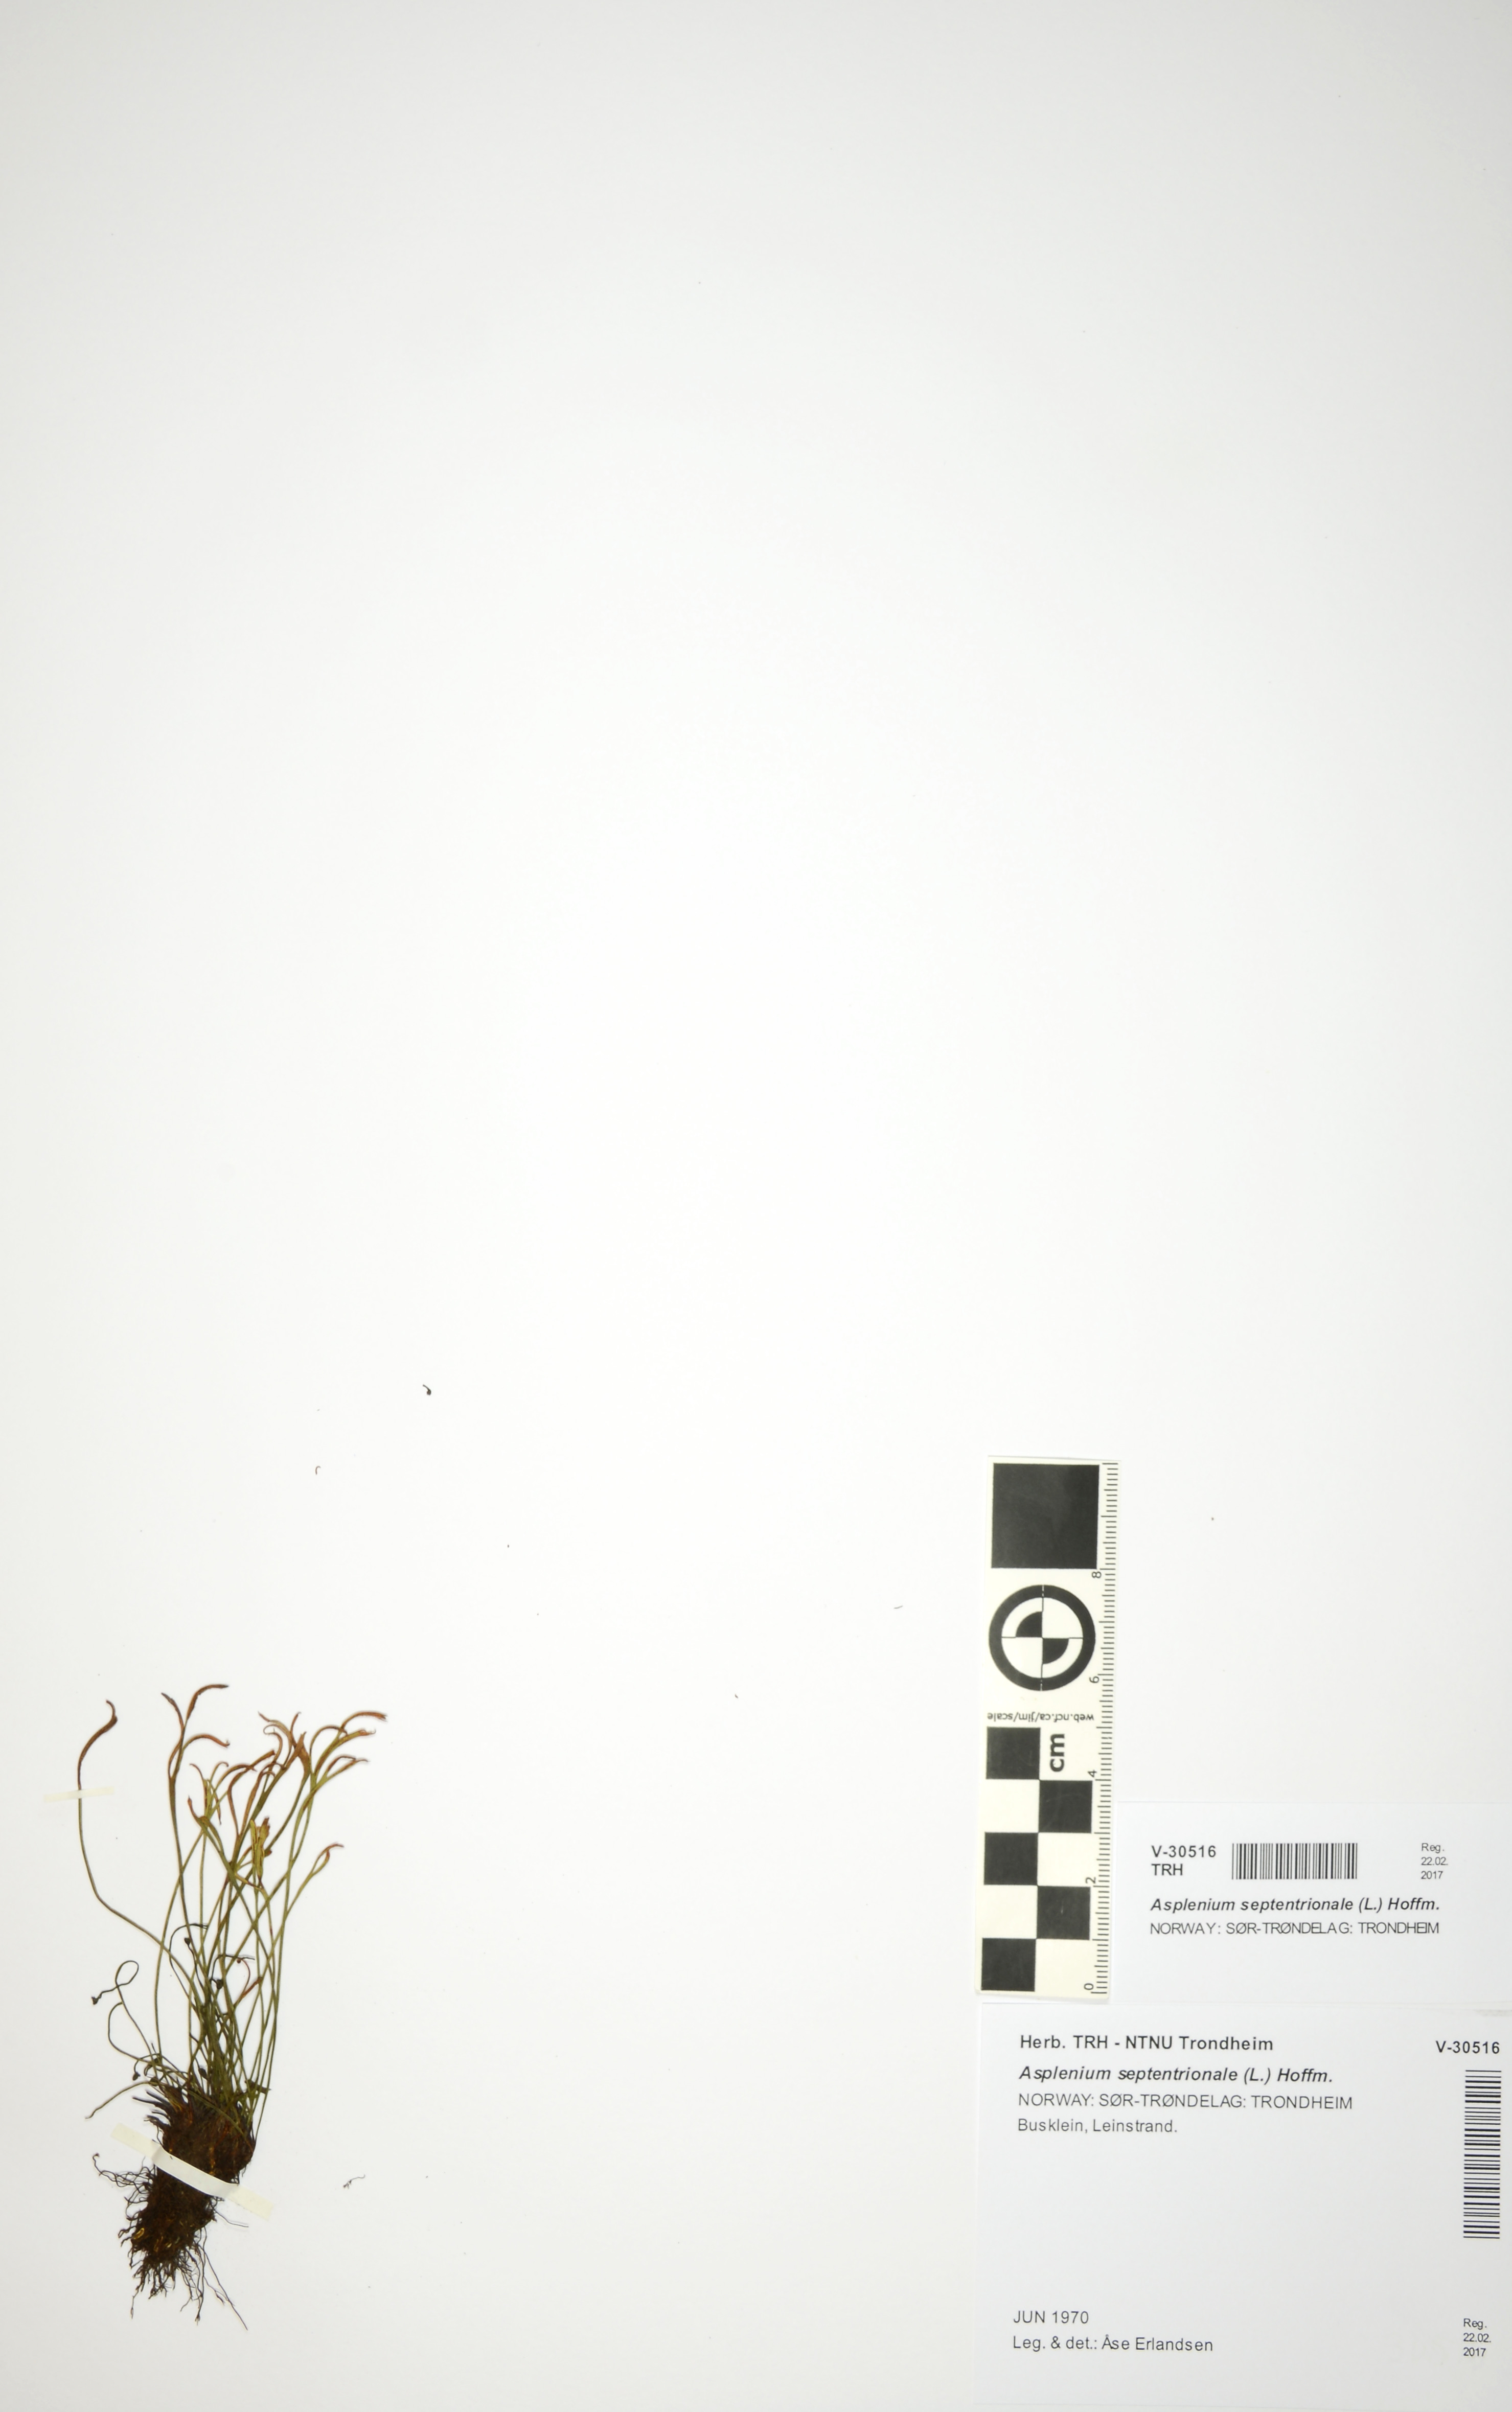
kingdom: Plantae
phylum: Tracheophyta
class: Polypodiopsida
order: Polypodiales
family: Aspleniaceae
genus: Asplenium
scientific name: Asplenium septentrionale
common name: Forked spleenwort
